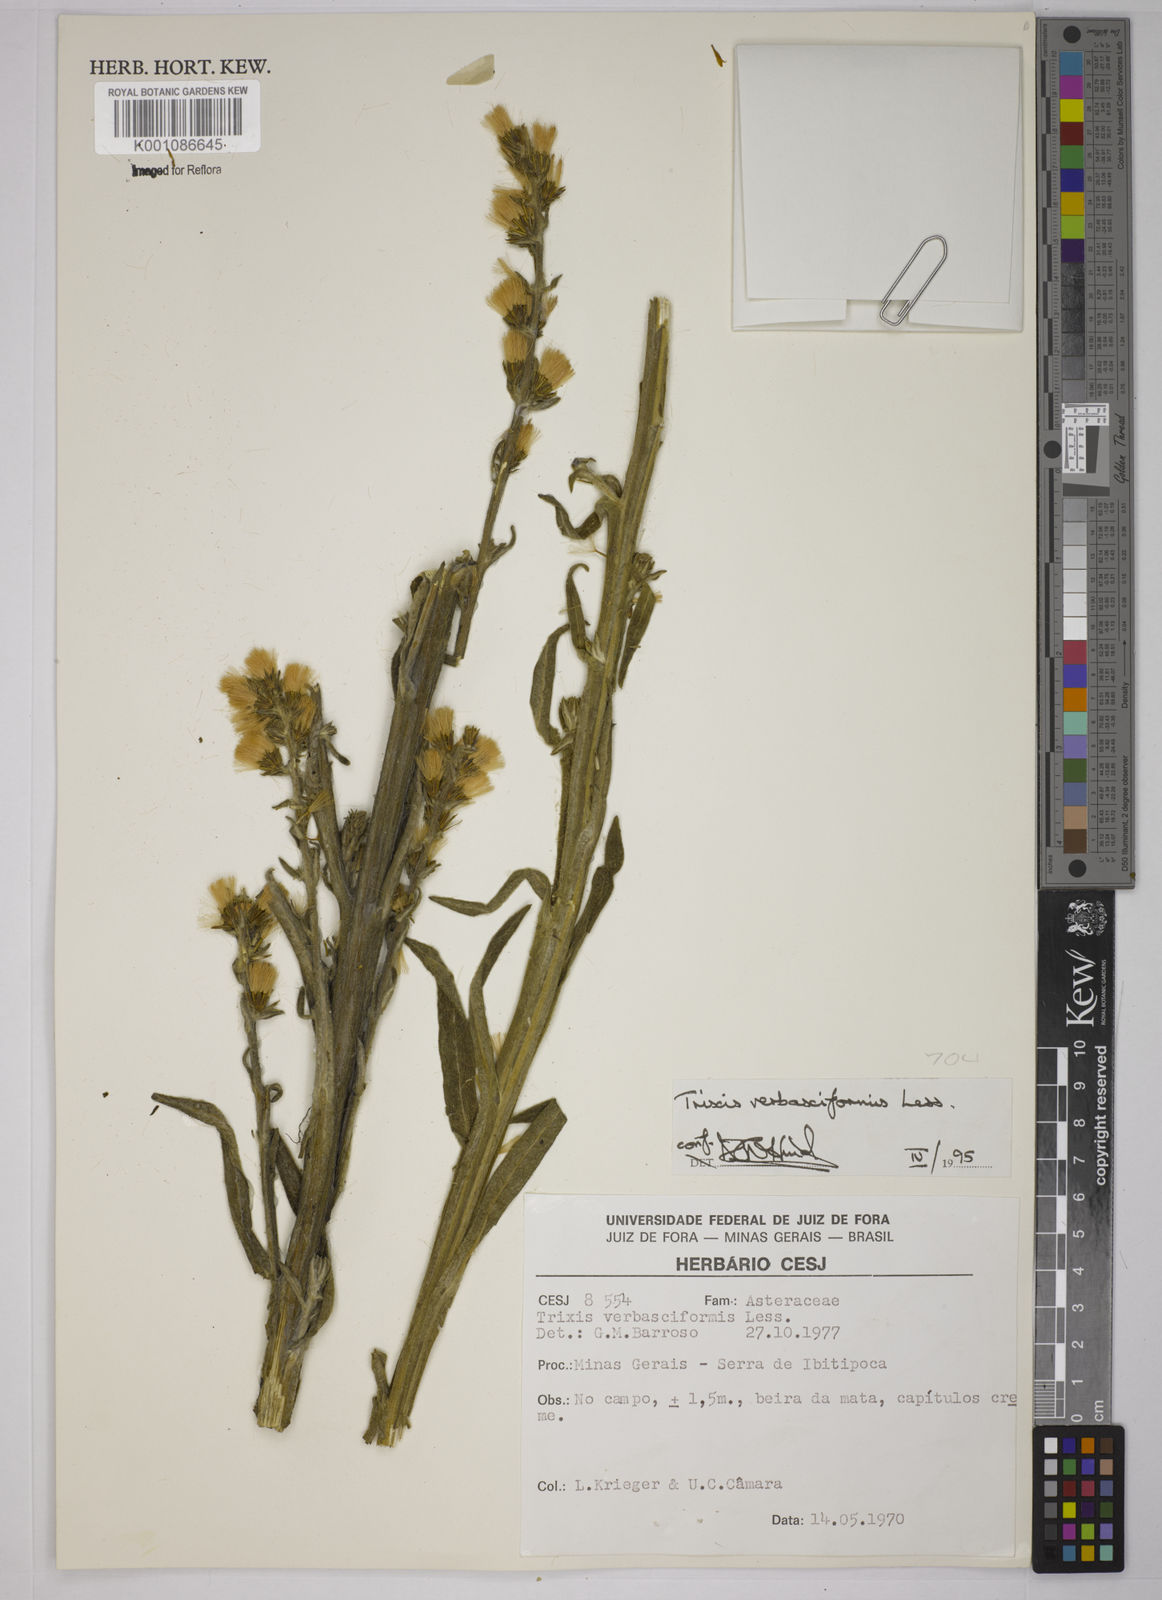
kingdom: Plantae
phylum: Tracheophyta
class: Magnoliopsida
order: Asterales
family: Asteraceae
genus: Trixis
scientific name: Trixis nobilis
